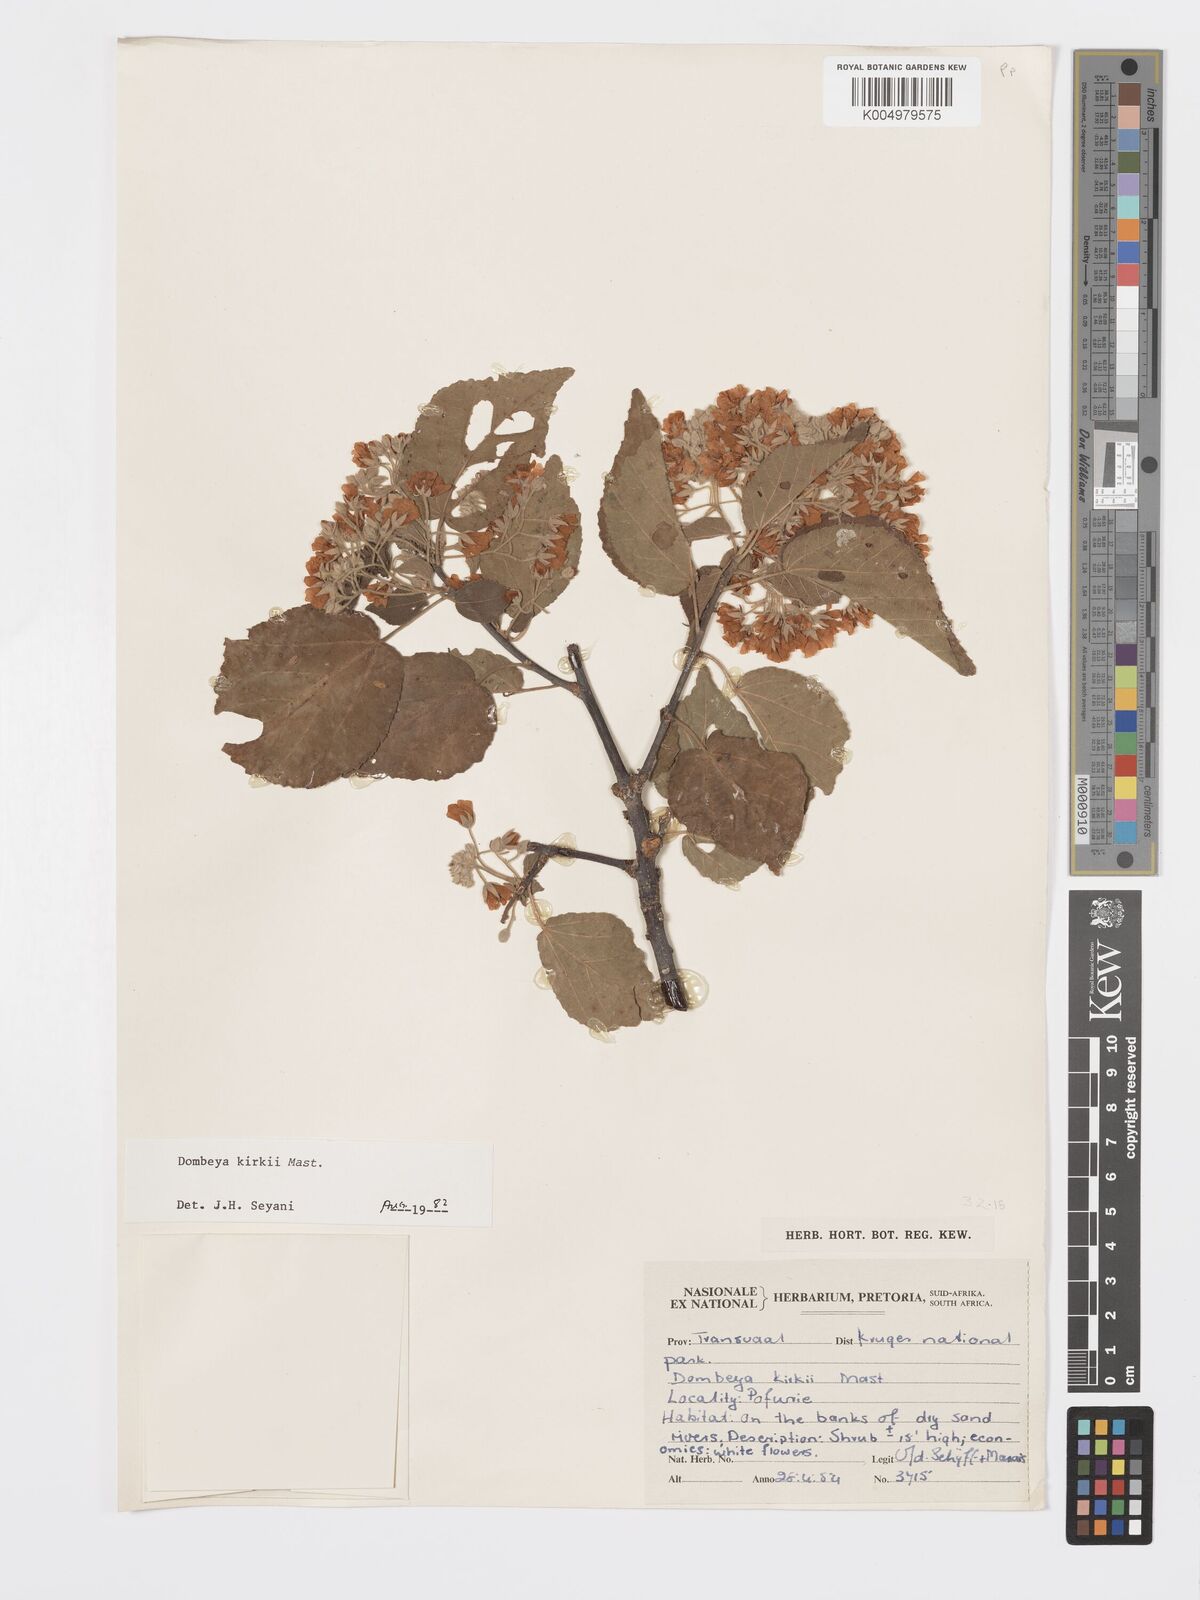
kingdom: Plantae
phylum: Tracheophyta
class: Magnoliopsida
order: Malvales
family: Malvaceae
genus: Dombeya
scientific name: Dombeya kirkii
